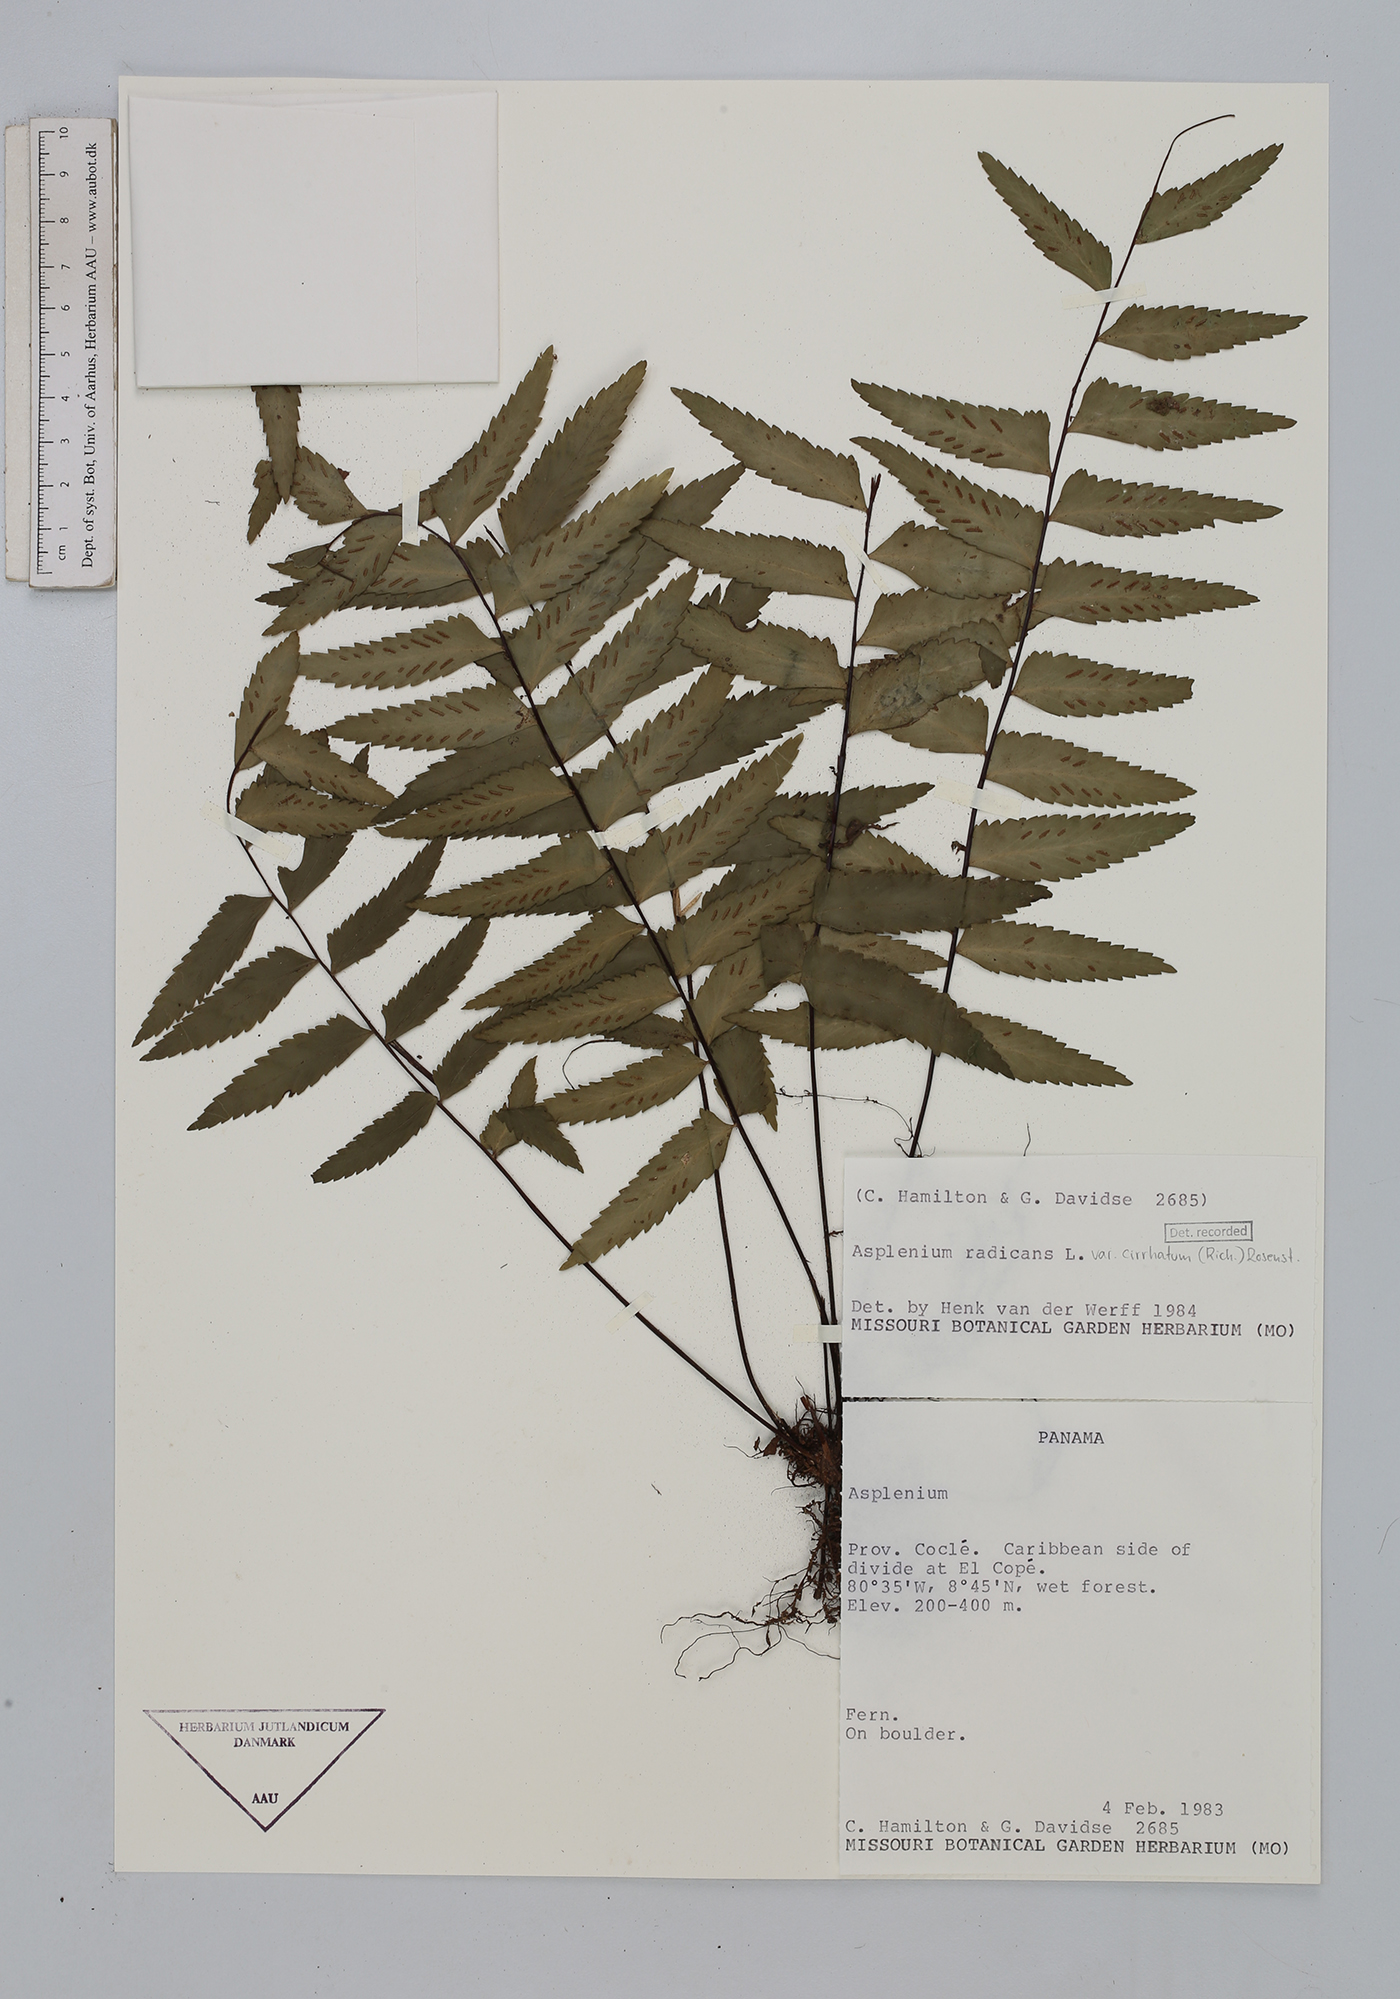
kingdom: Plantae
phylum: Tracheophyta
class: Polypodiopsida
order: Polypodiales
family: Aspleniaceae
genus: Asplenium
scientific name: Asplenium cirrhatum
